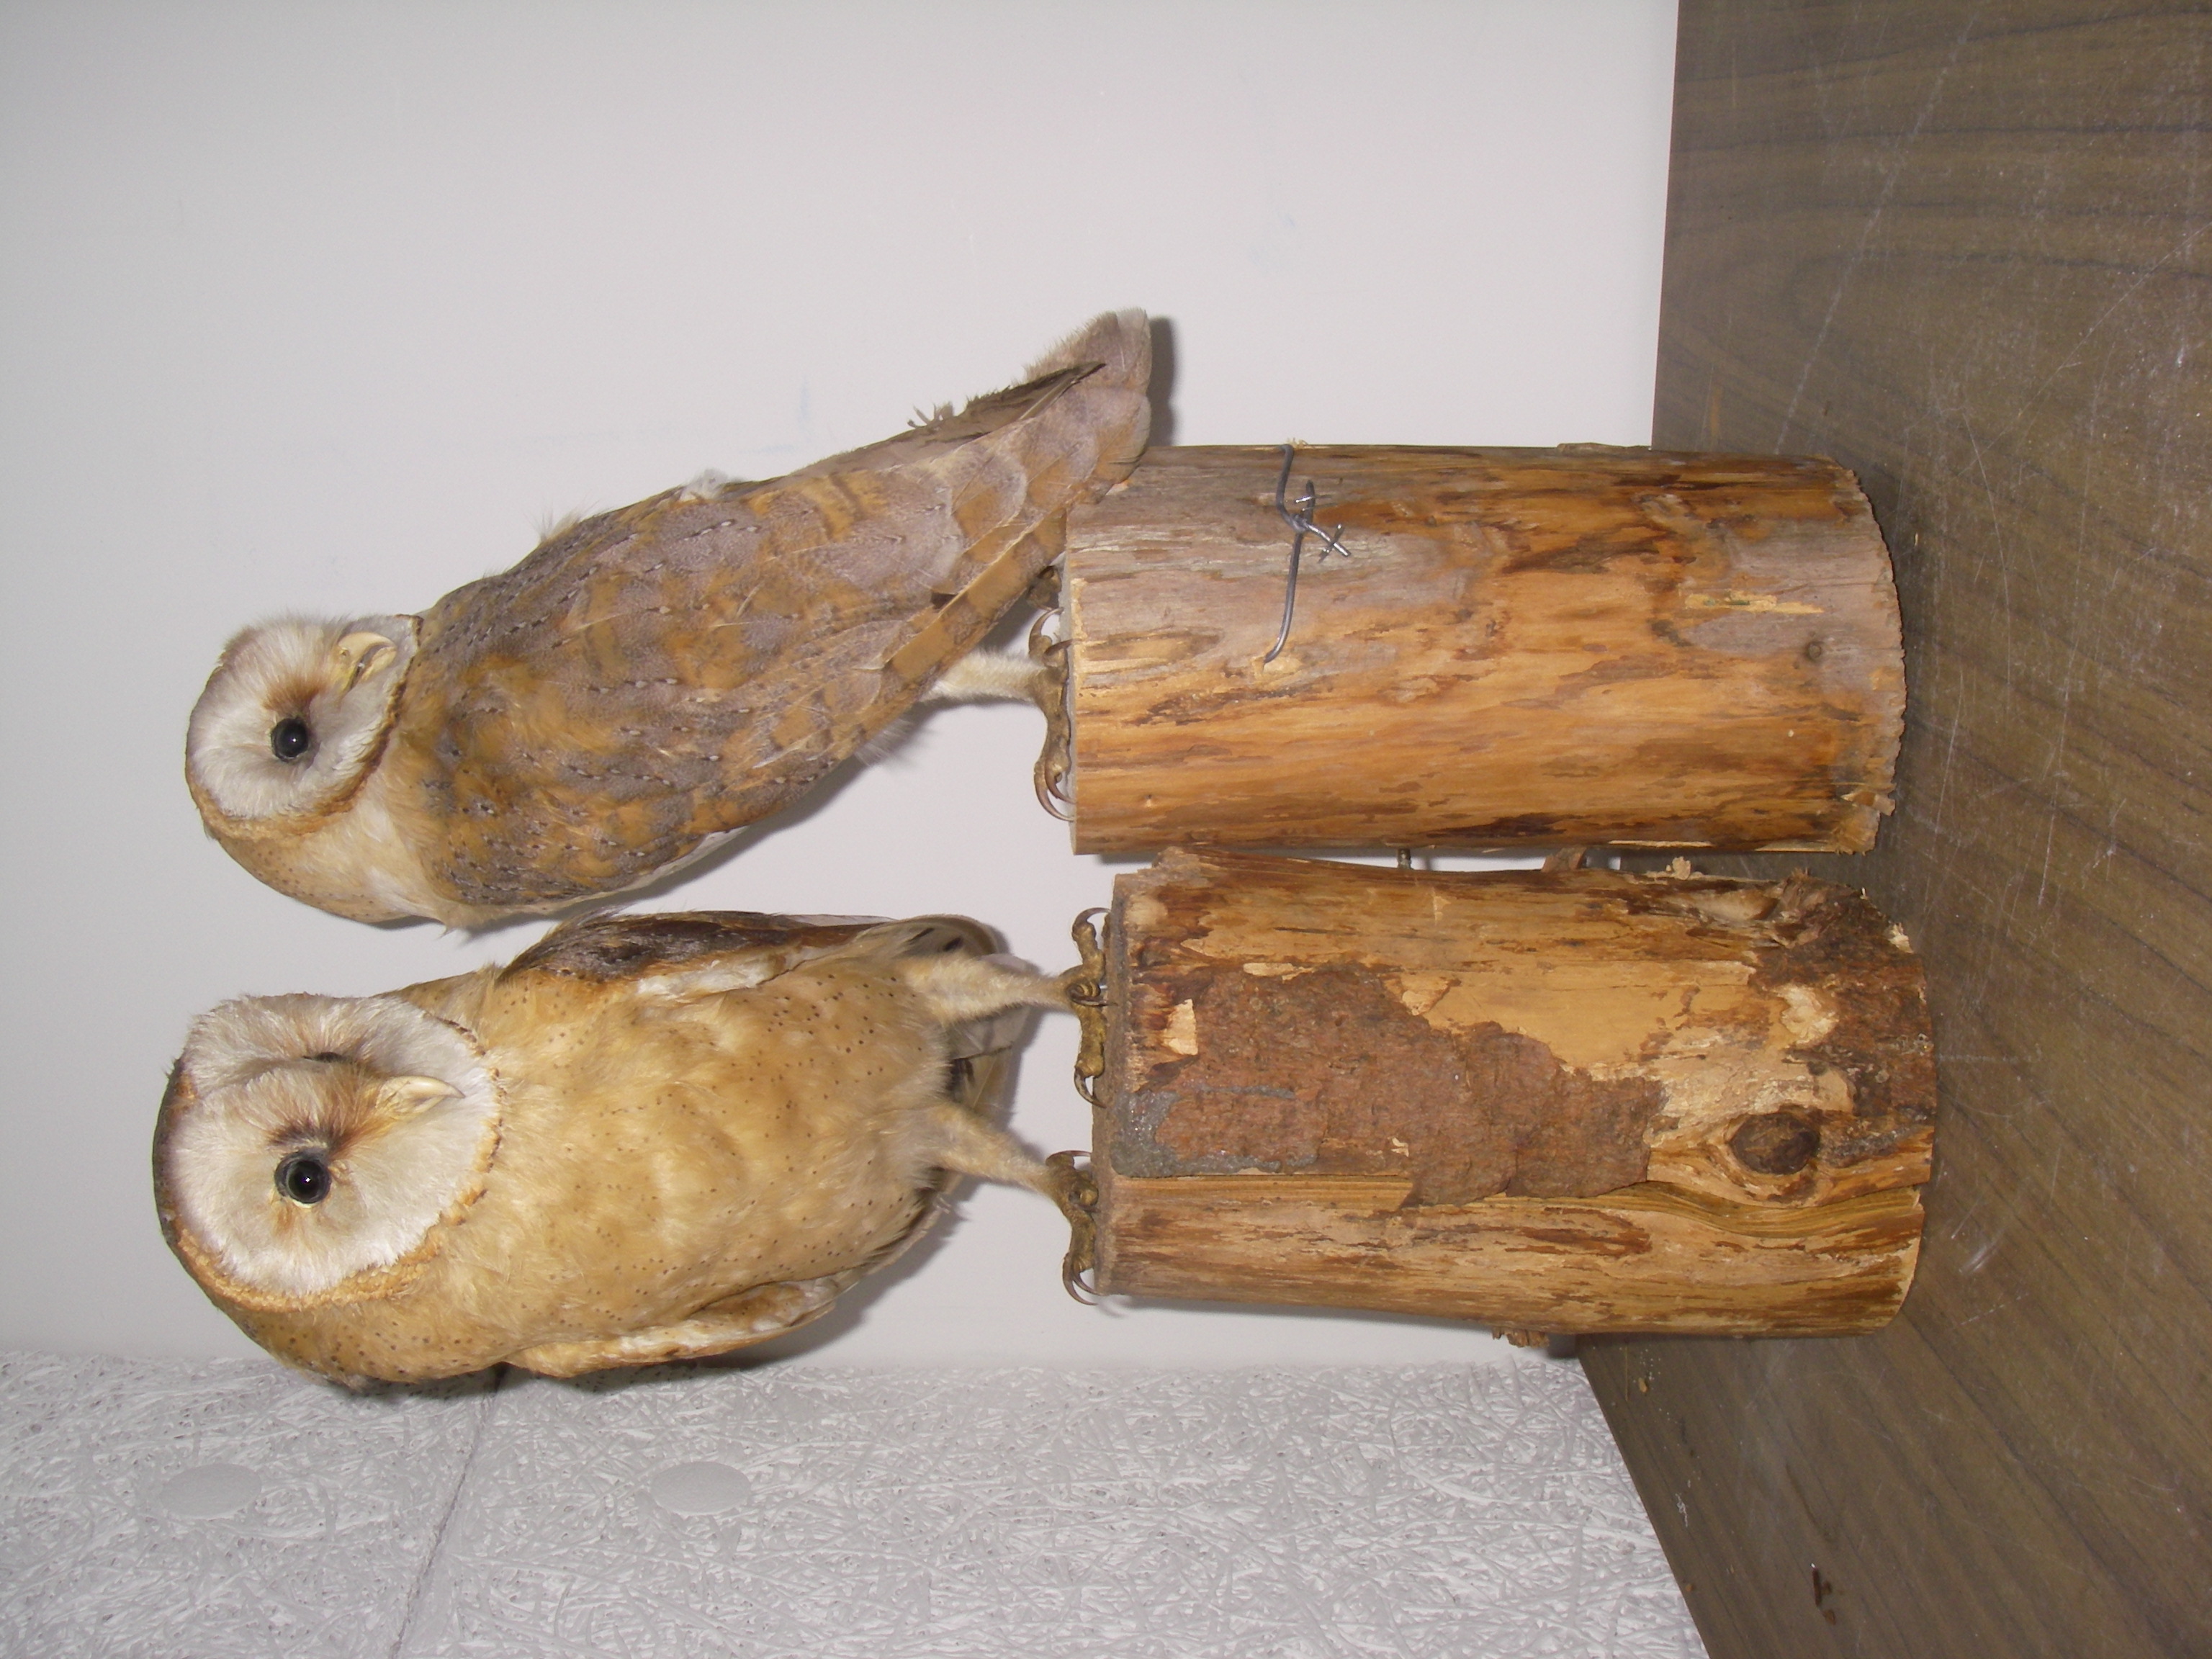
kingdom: Animalia
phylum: Chordata
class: Aves
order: Strigiformes
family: Tytonidae
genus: Tyto
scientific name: Tyto alba
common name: Barn owl
